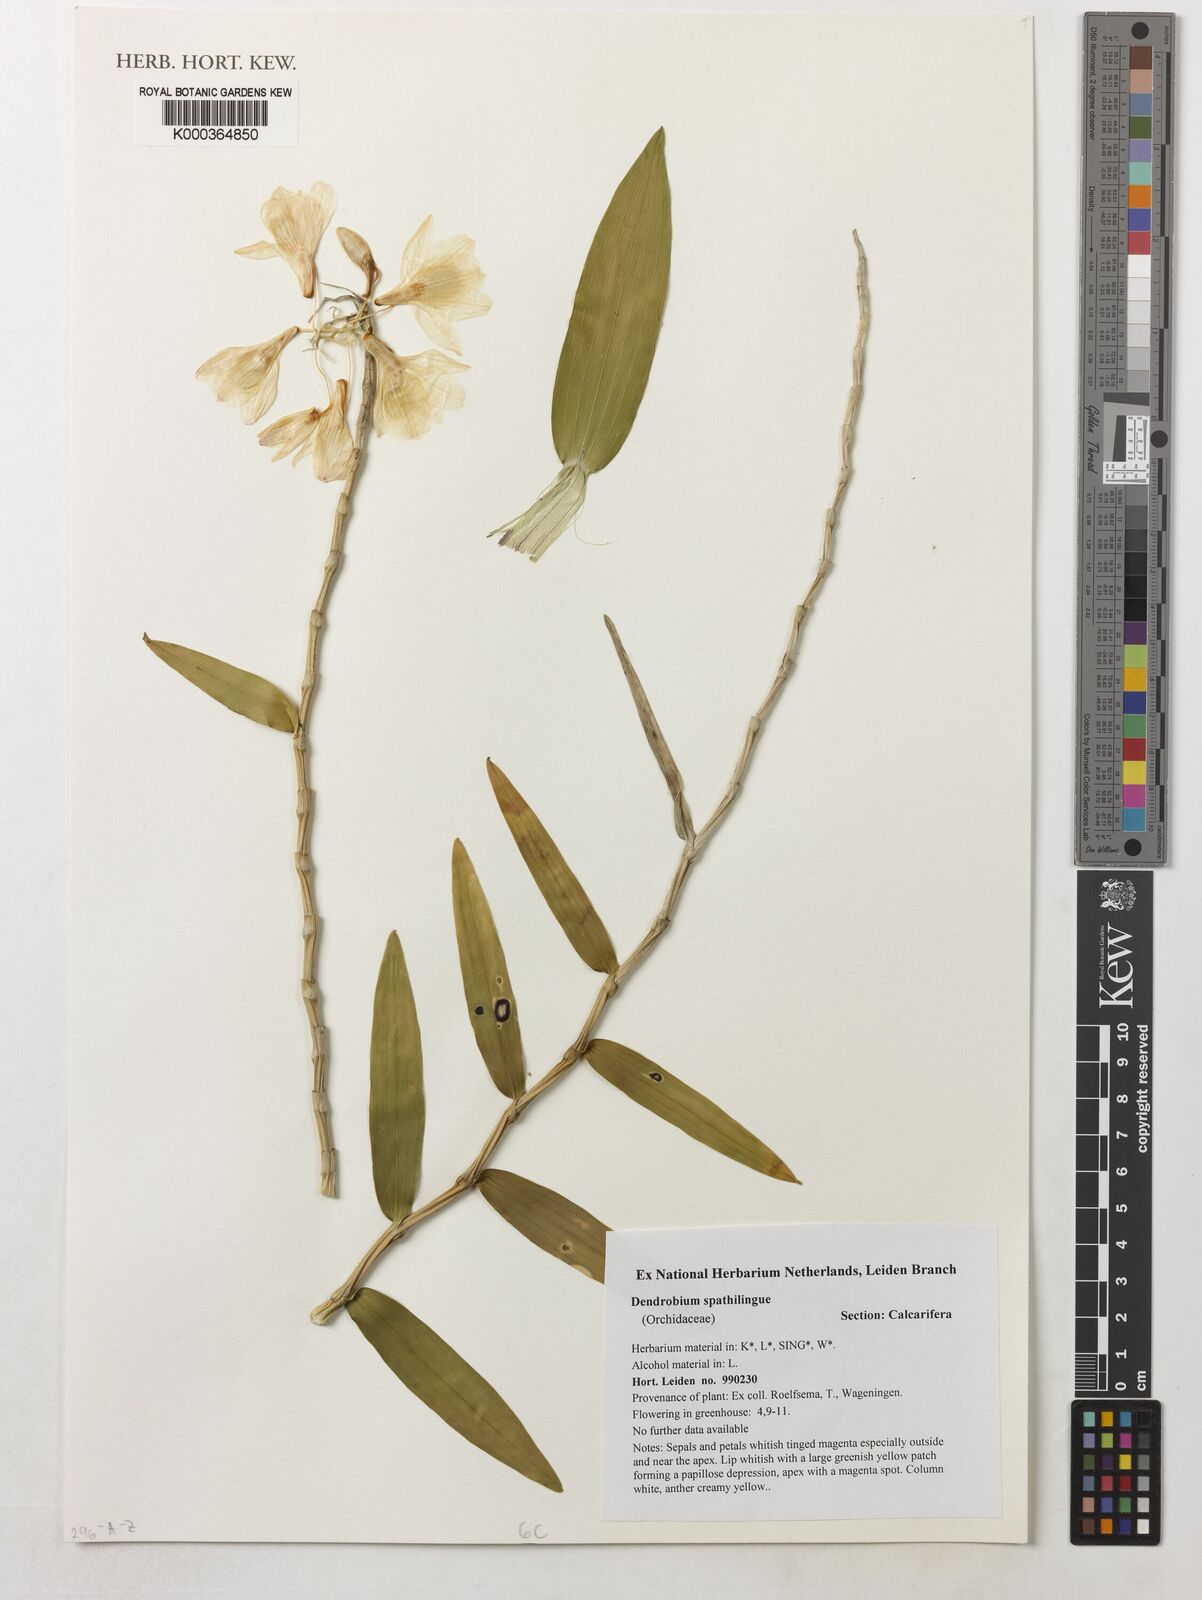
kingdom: Plantae
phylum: Tracheophyta
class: Liliopsida
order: Asparagales
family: Orchidaceae
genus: Dendrobium
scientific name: Dendrobium spathilingue
